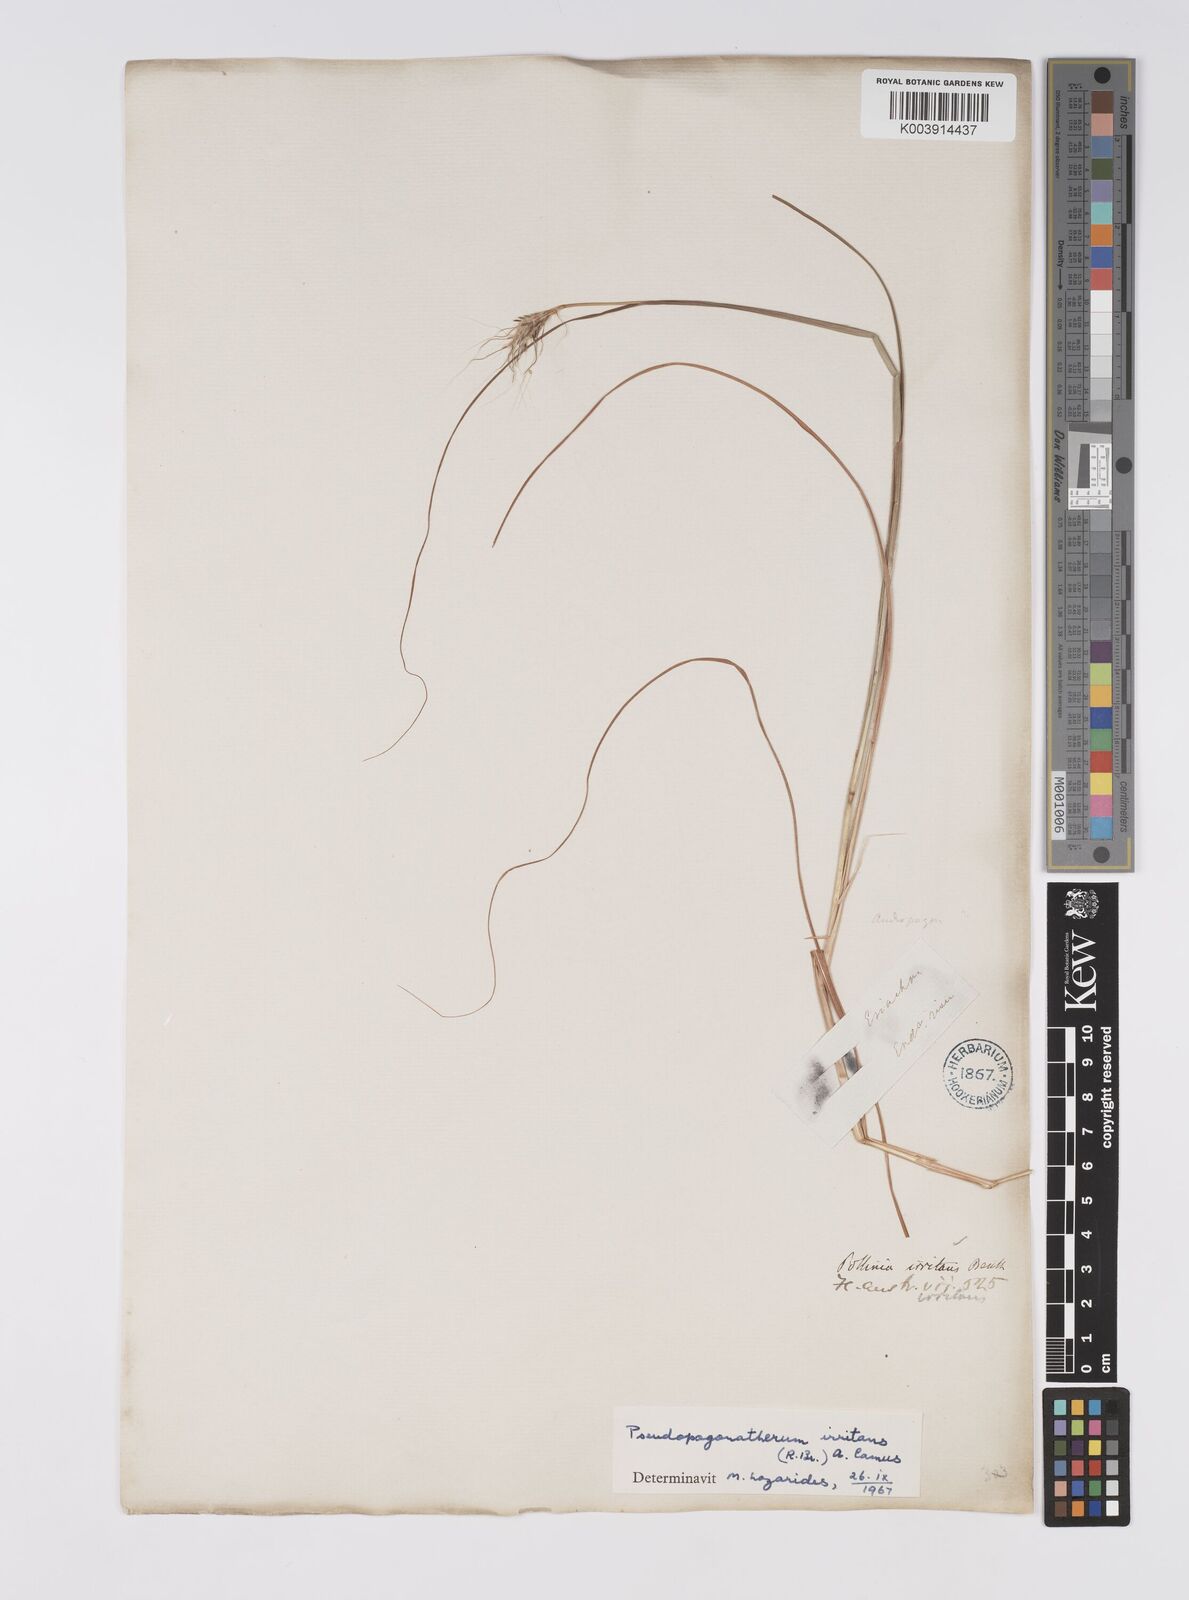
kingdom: Plantae
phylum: Tracheophyta
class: Liliopsida
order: Poales
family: Poaceae
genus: Pseudopogonatherum
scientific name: Pseudopogonatherum irritans
